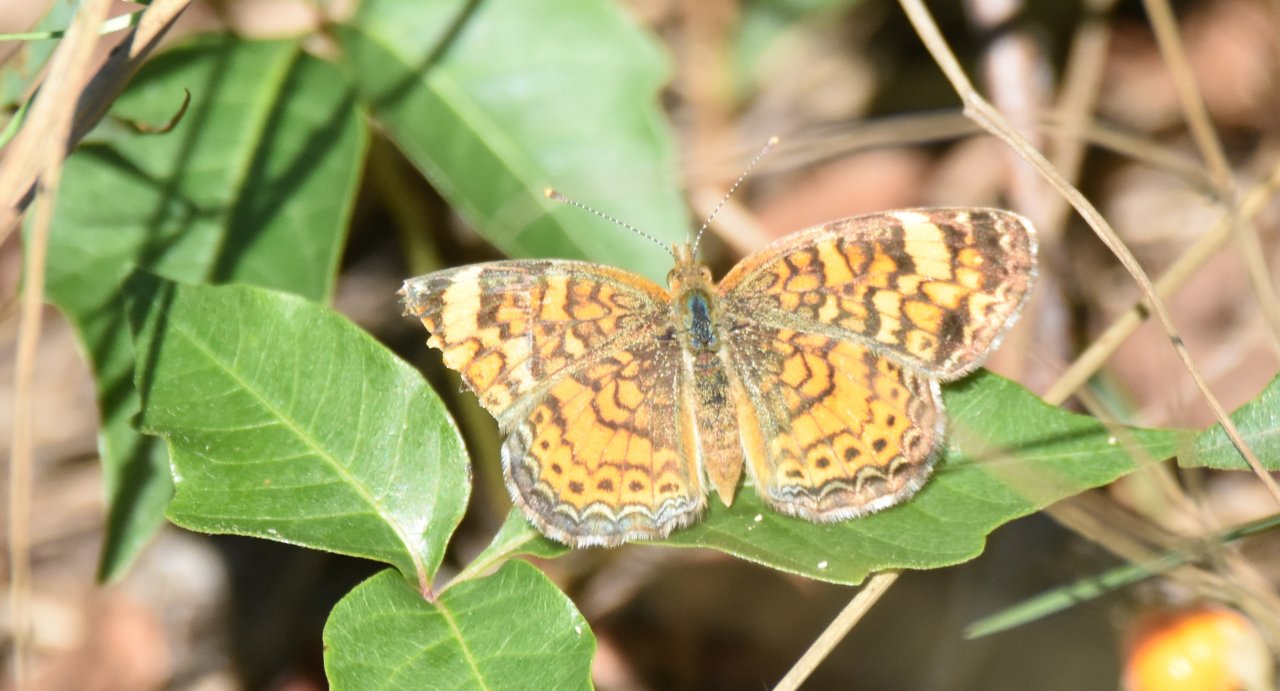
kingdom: Animalia
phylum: Arthropoda
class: Insecta
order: Lepidoptera
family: Nymphalidae
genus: Phyciodes
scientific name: Phyciodes tharos
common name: Pearl Crescent
